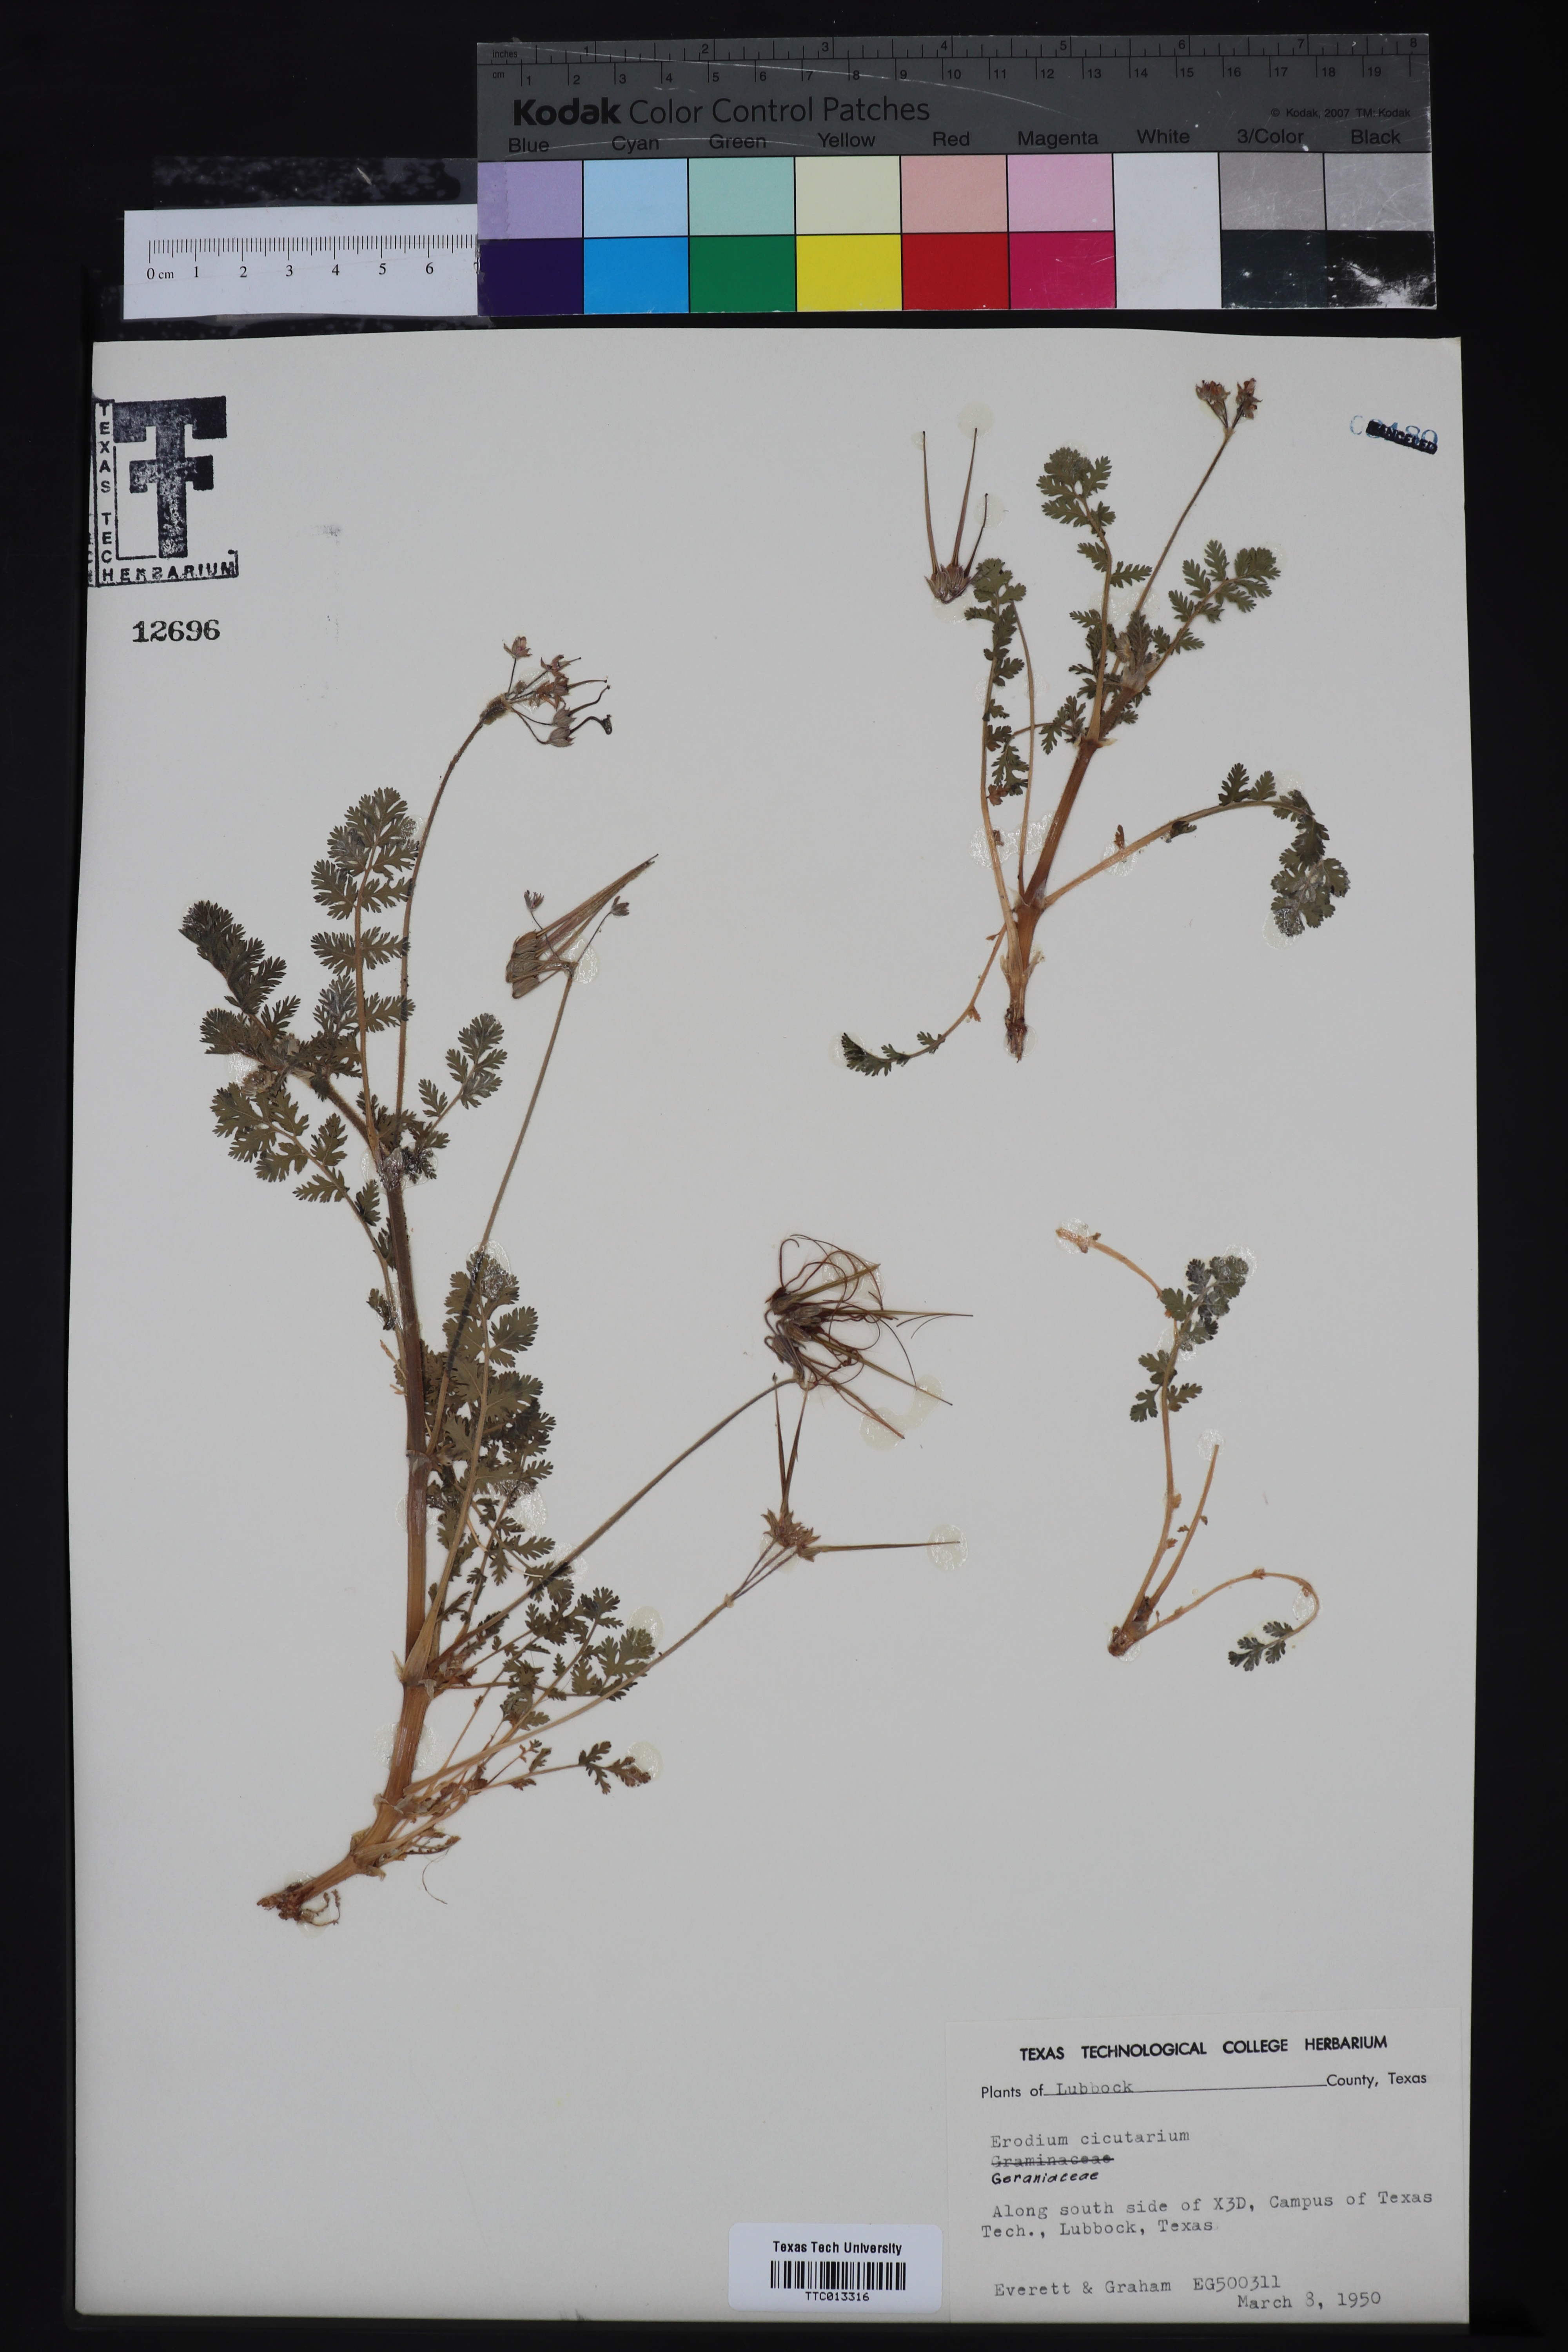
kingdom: Plantae
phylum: Tracheophyta
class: Magnoliopsida
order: Geraniales
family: Geraniaceae
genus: Erodium
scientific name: Erodium cicutarium
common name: Common stork's-bill
